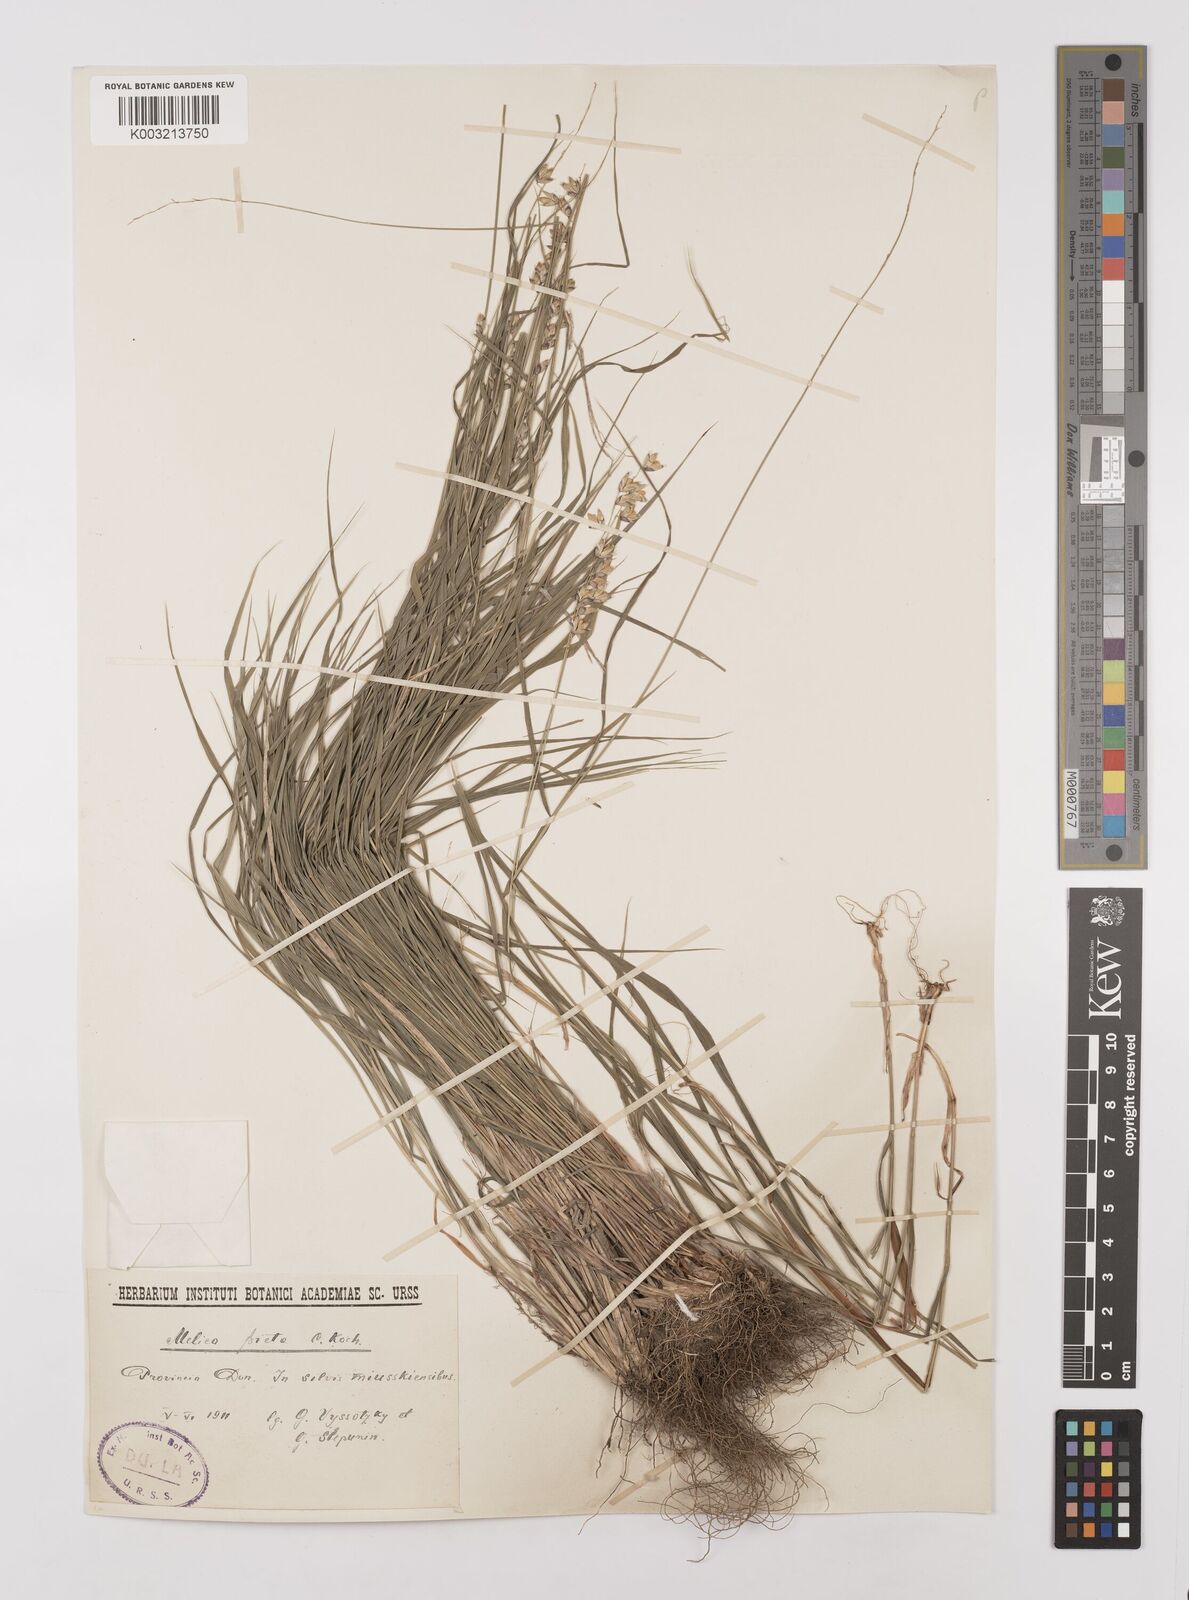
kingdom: Plantae
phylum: Tracheophyta
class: Liliopsida
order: Poales
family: Poaceae
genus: Melica
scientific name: Melica picta
